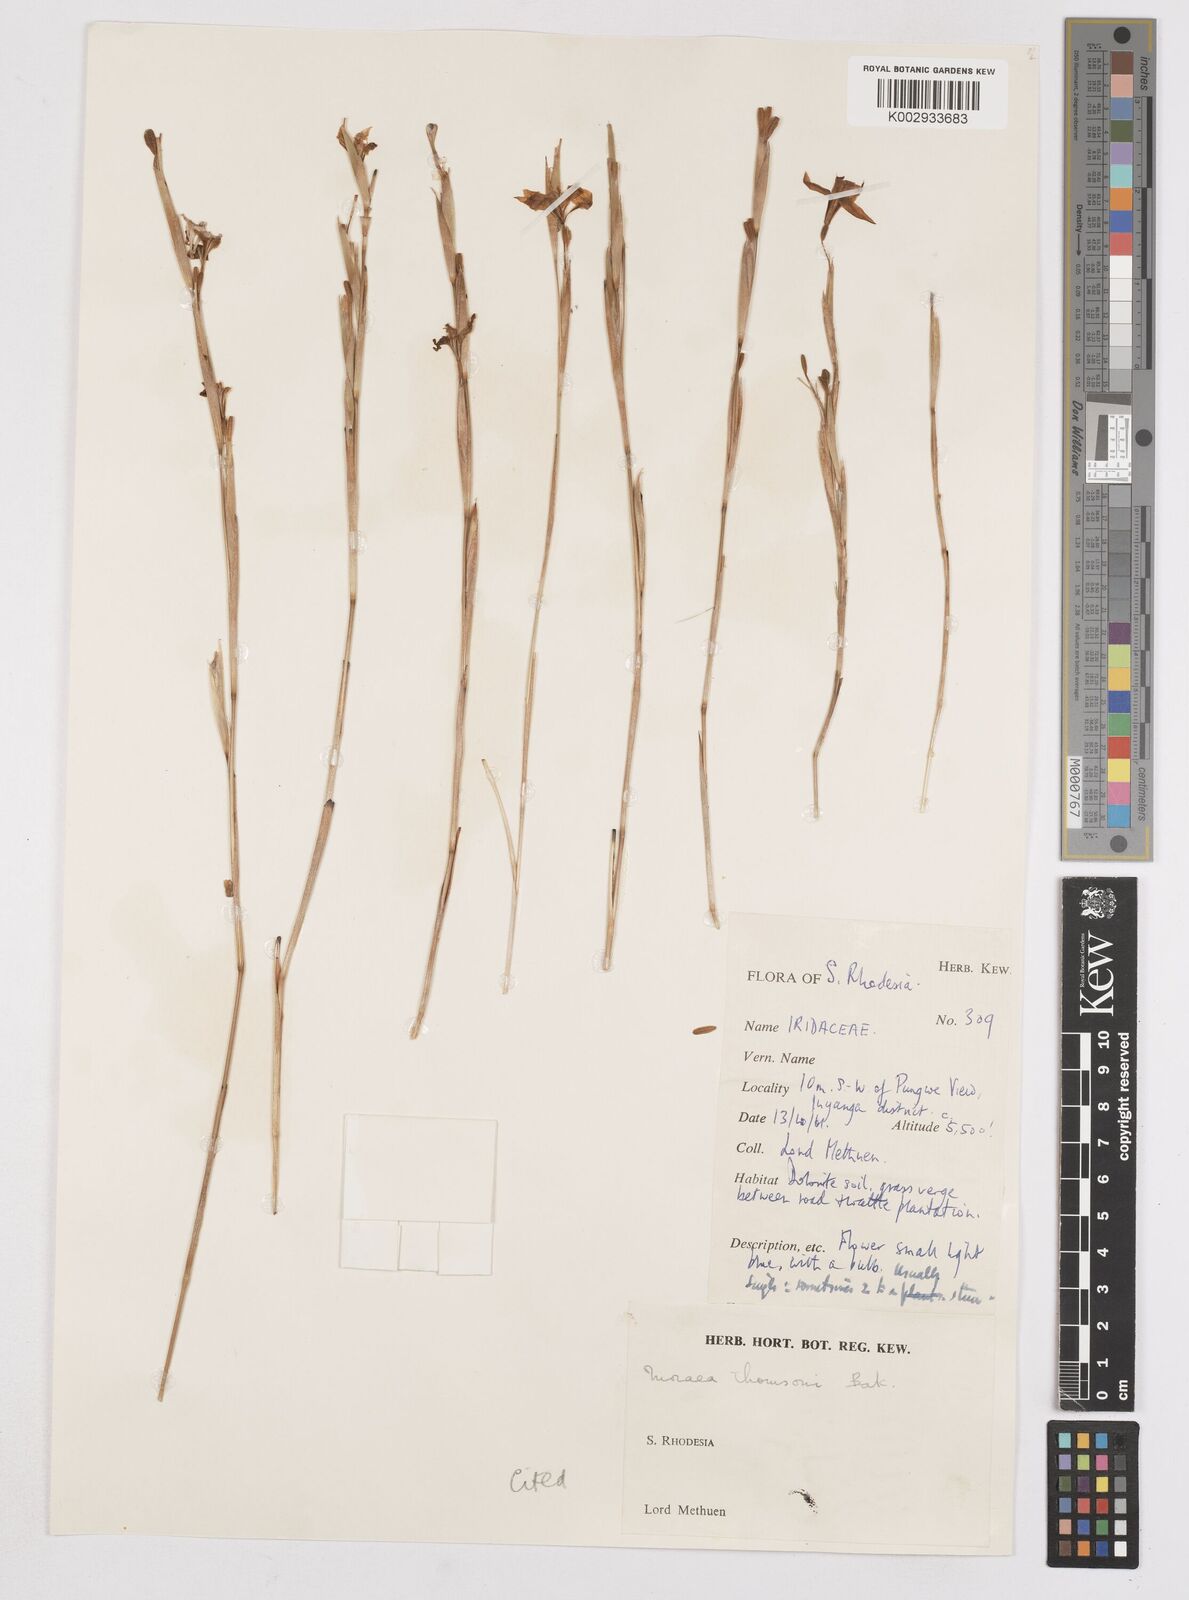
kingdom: Plantae
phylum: Tracheophyta
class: Liliopsida
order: Asparagales
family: Iridaceae
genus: Moraea
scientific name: Moraea thomsonii
